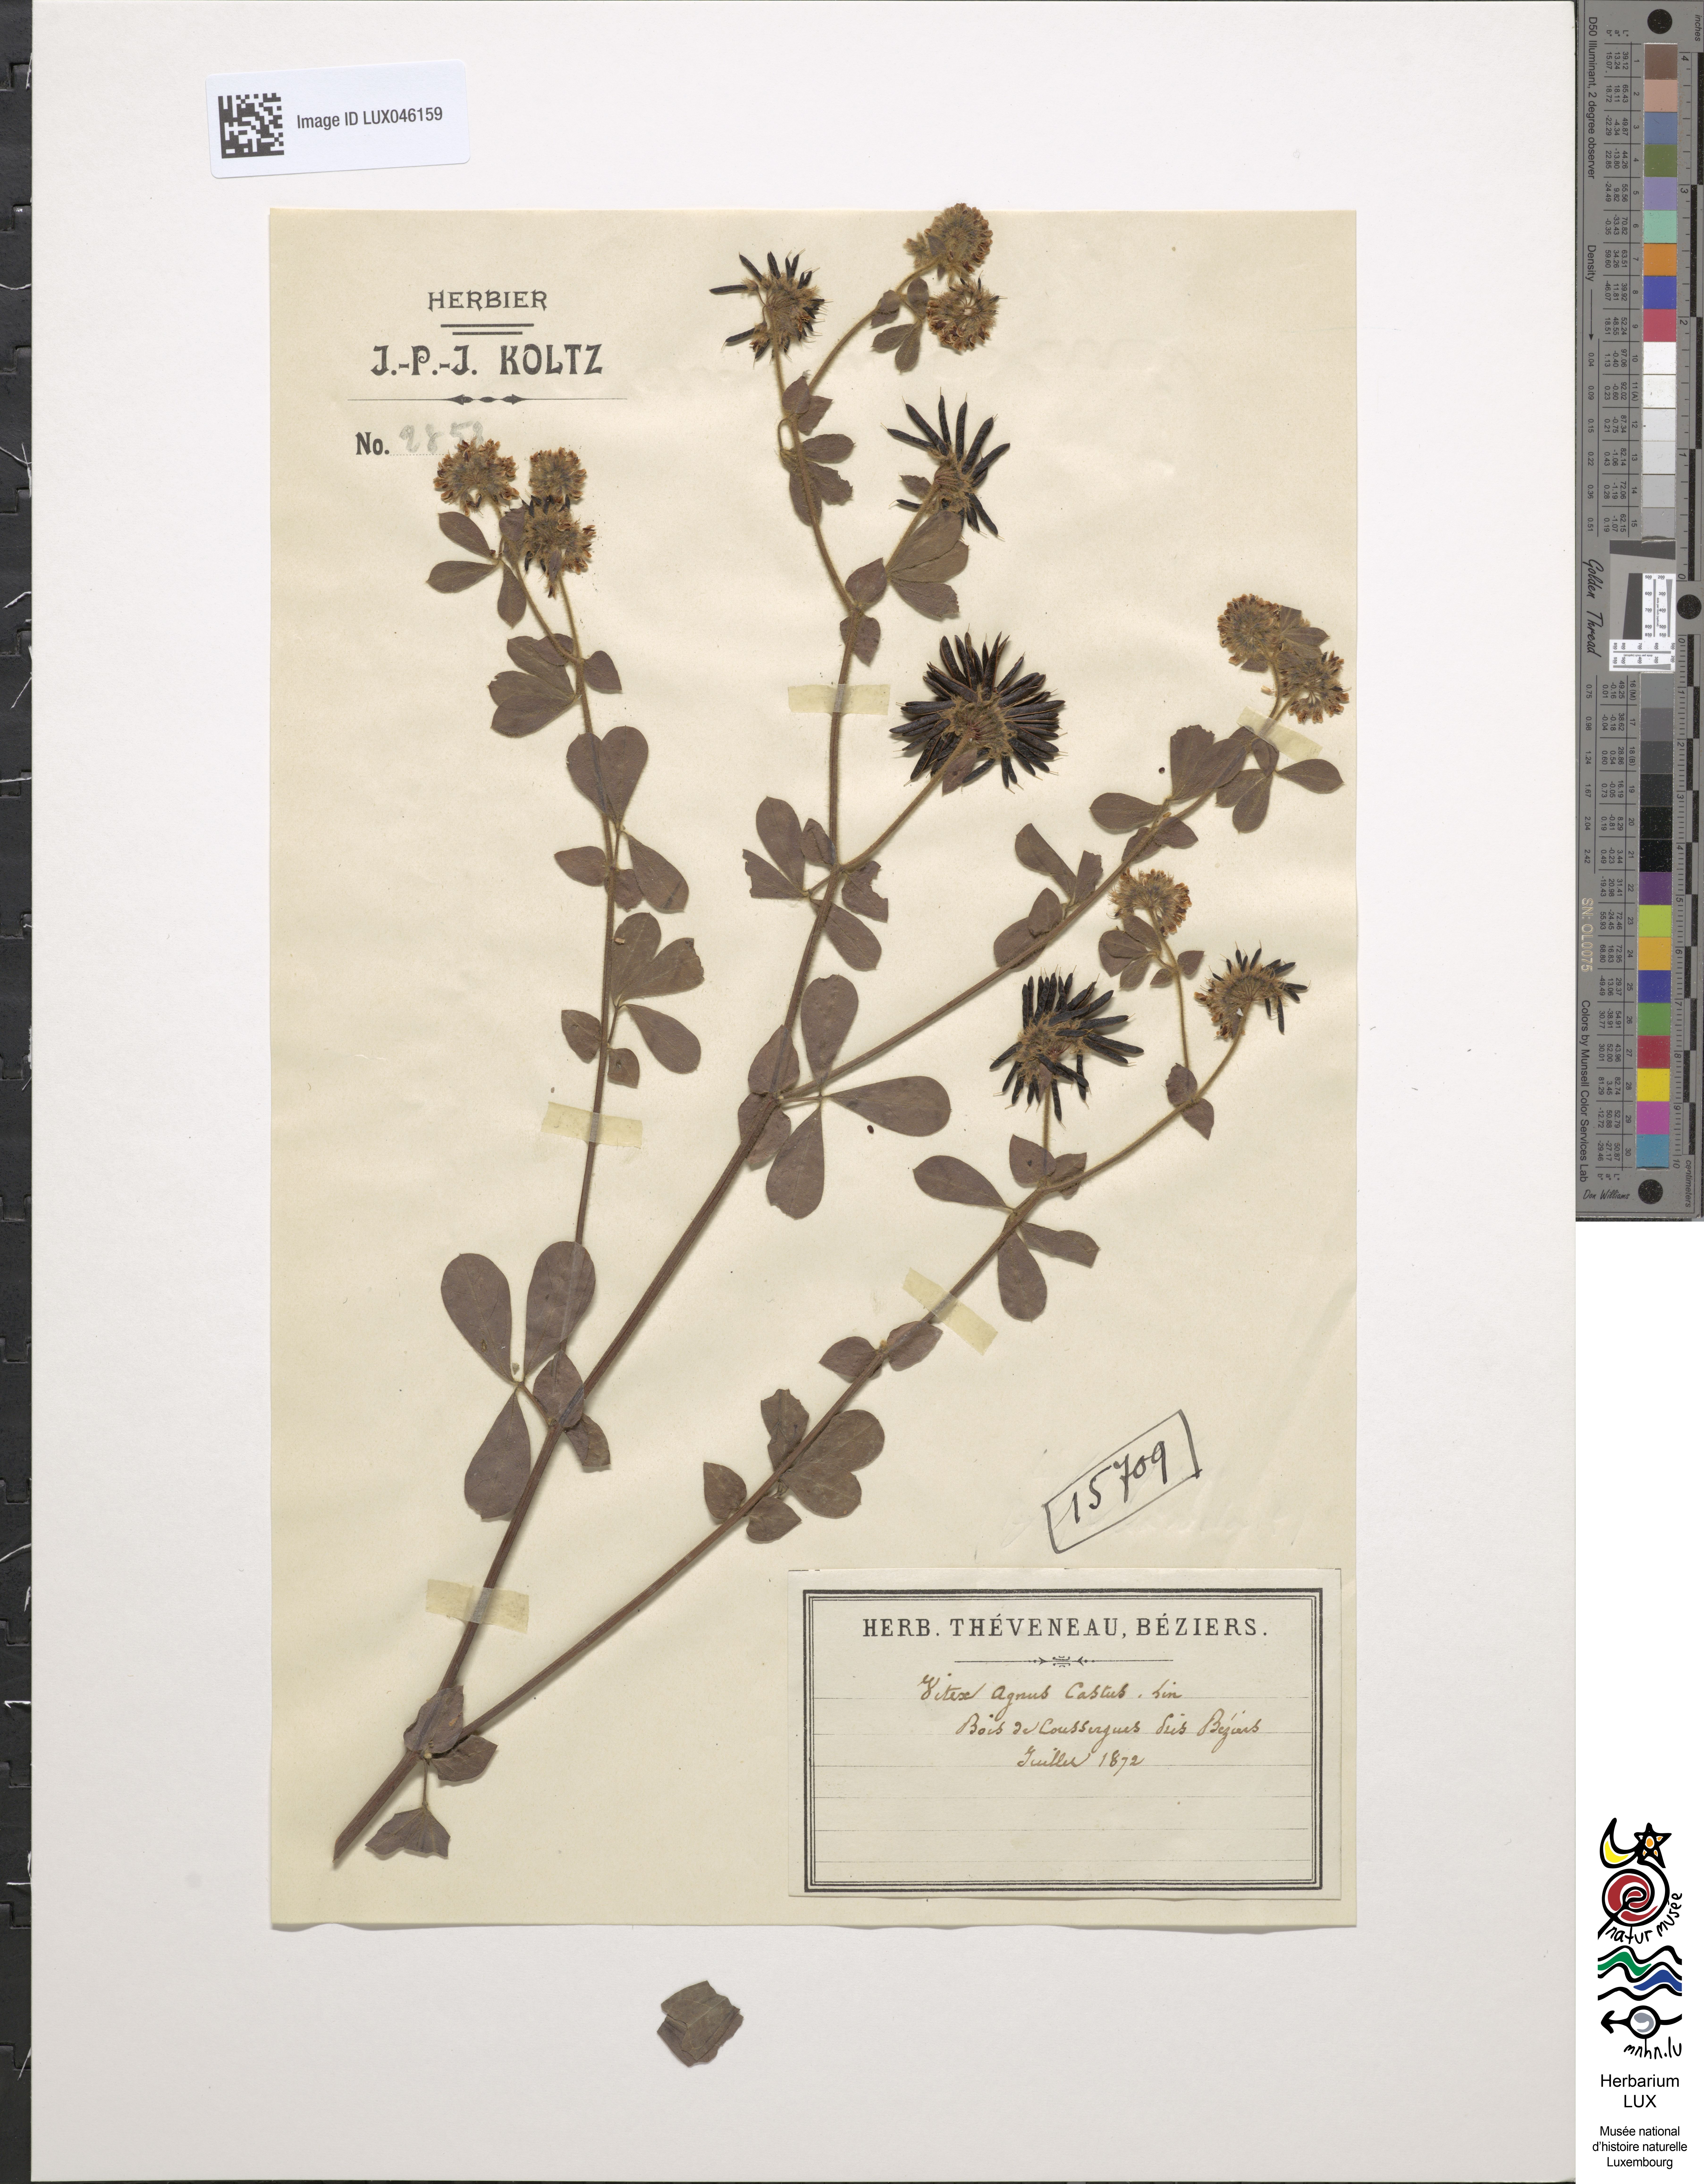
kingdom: Plantae
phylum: Tracheophyta
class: Magnoliopsida
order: Lamiales
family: Lamiaceae
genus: Vitex
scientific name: Vitex agnus-castus
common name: Chasteberry
